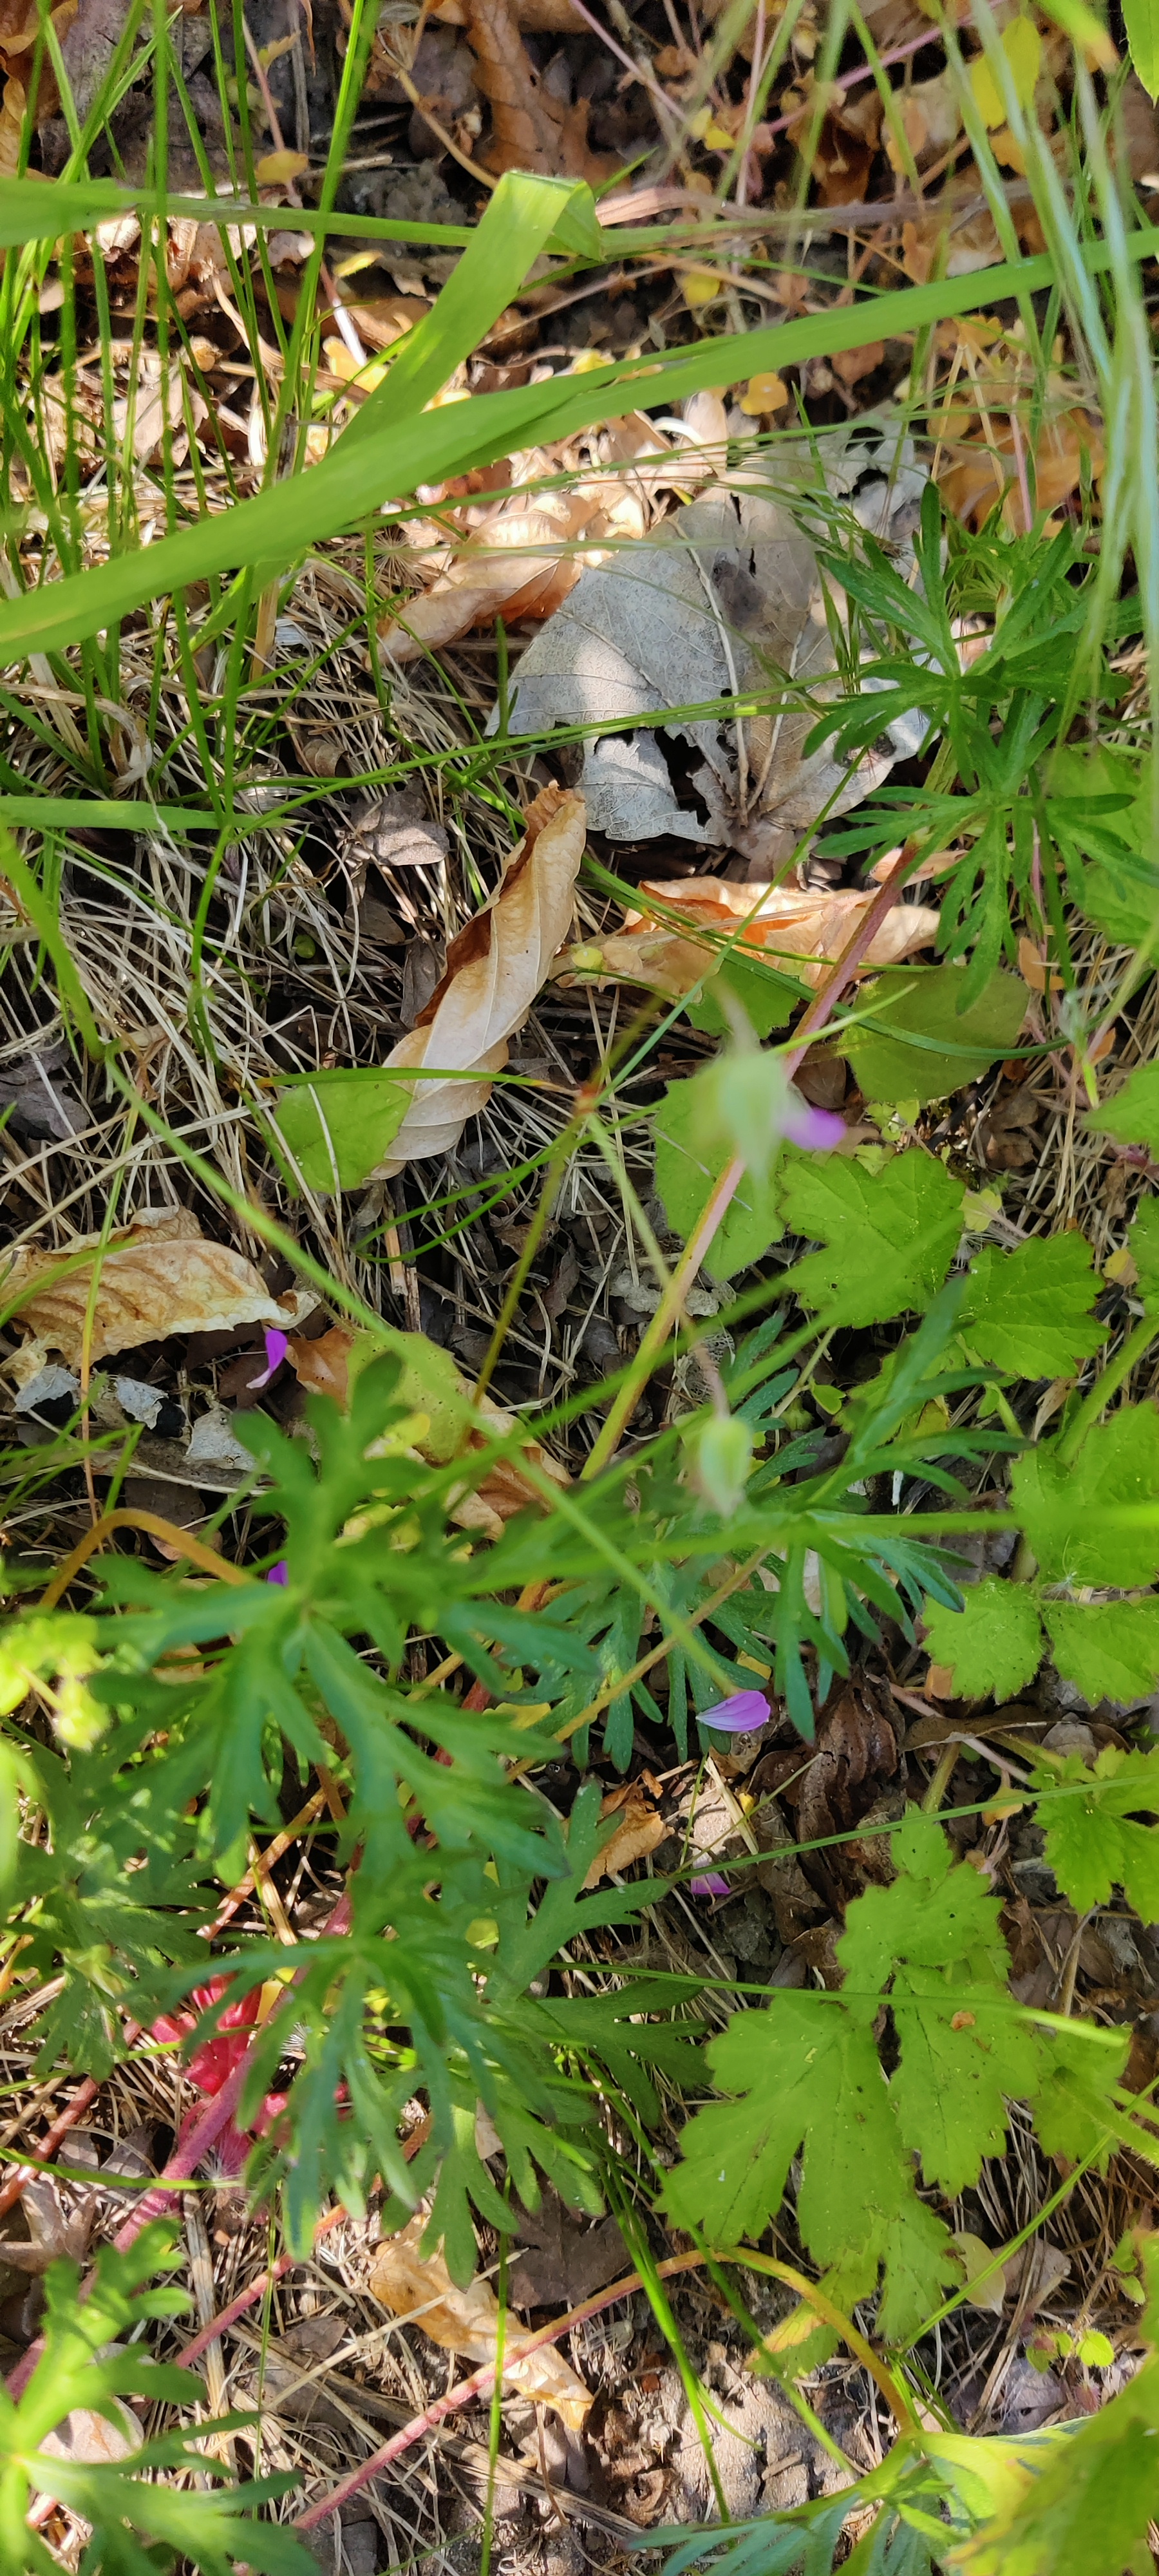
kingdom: Plantae
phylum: Tracheophyta
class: Magnoliopsida
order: Geraniales
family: Geraniaceae
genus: Geranium
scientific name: Geranium columbinum
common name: Storbægret storkenæb
